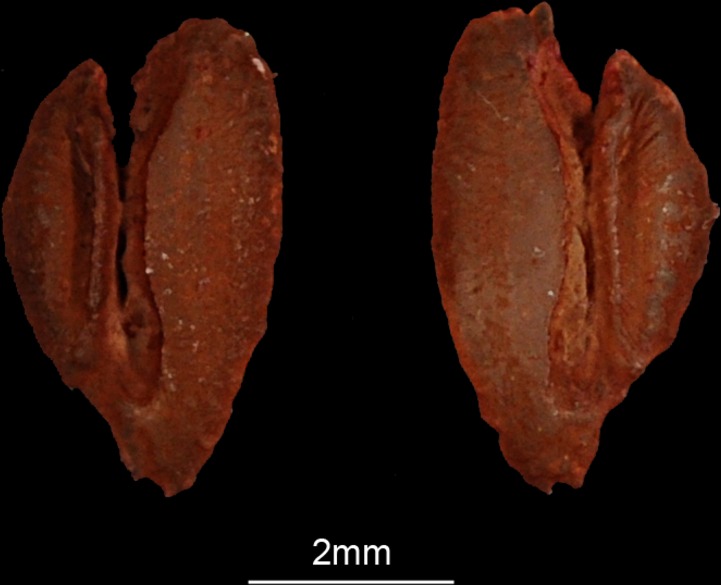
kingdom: Animalia
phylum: Chordata
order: Perciformes
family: Labridae
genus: Choerodon
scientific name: Choerodon robustus
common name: Robust tuskfish
